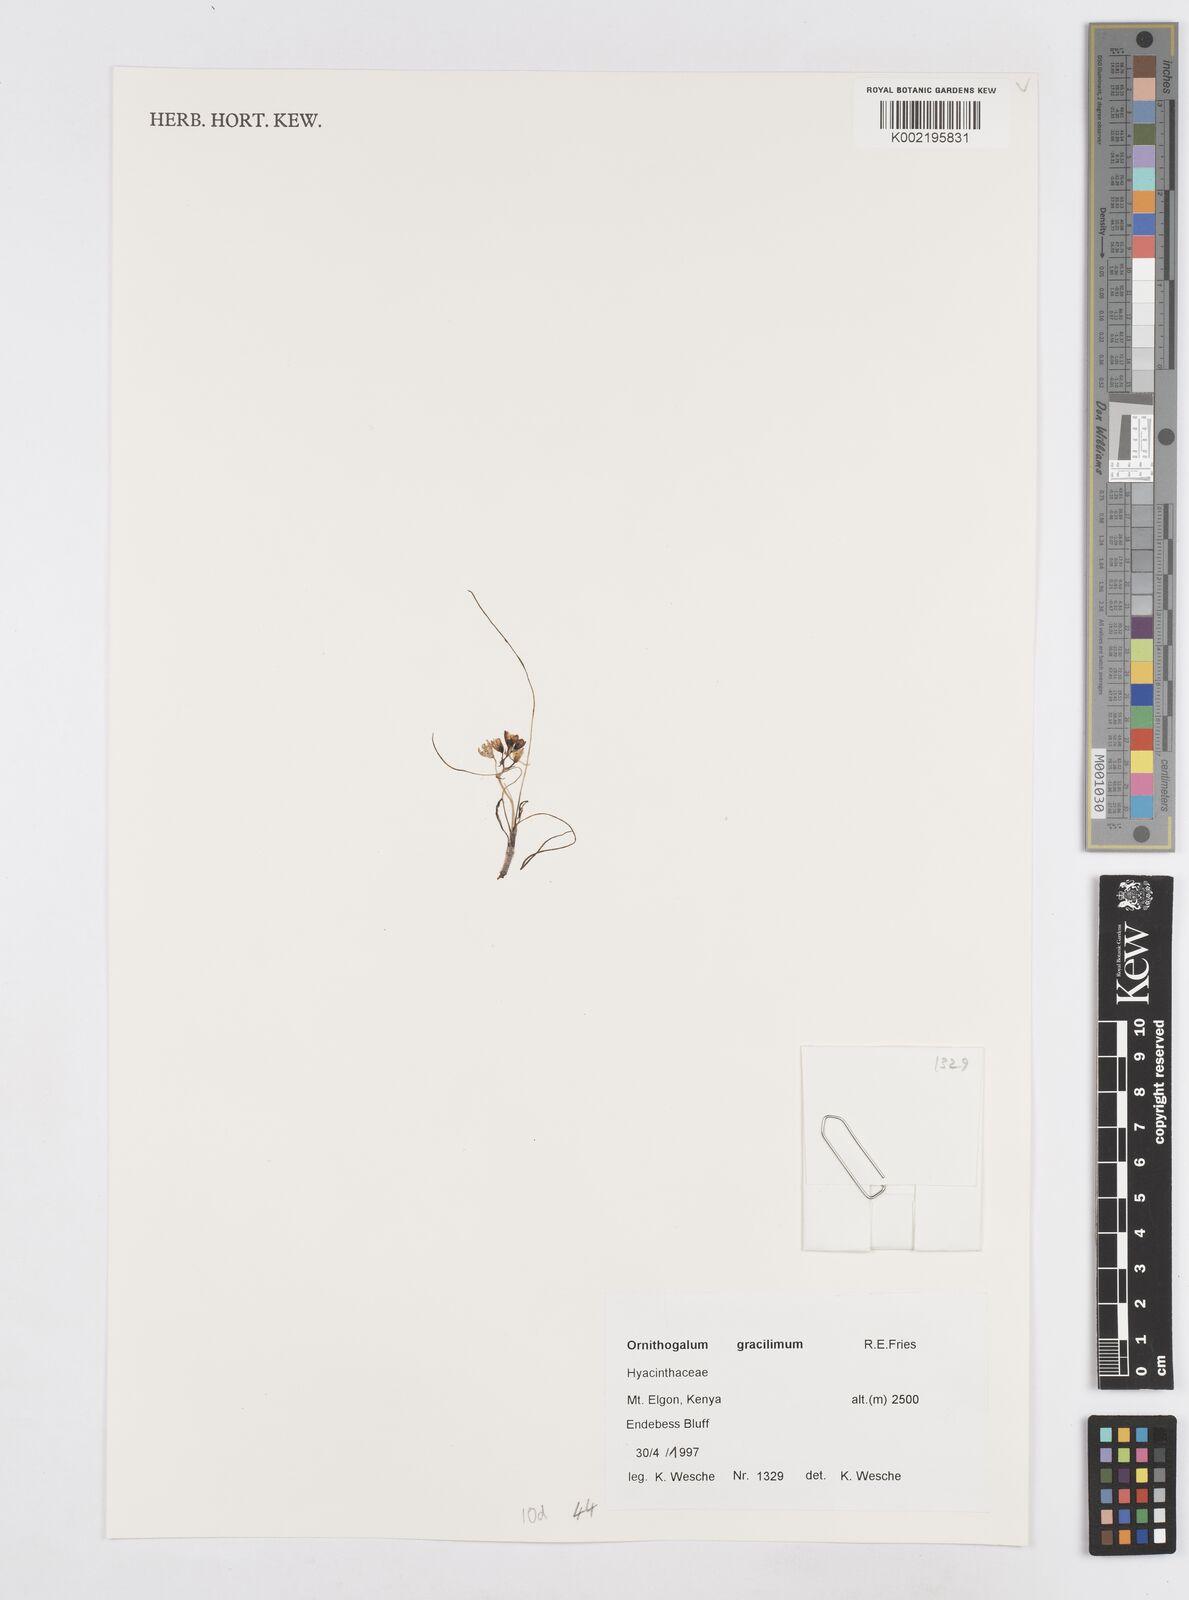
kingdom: Plantae
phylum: Tracheophyta
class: Liliopsida
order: Asparagales
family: Asparagaceae
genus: Ornithogalum
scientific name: Ornithogalum gracillimum
